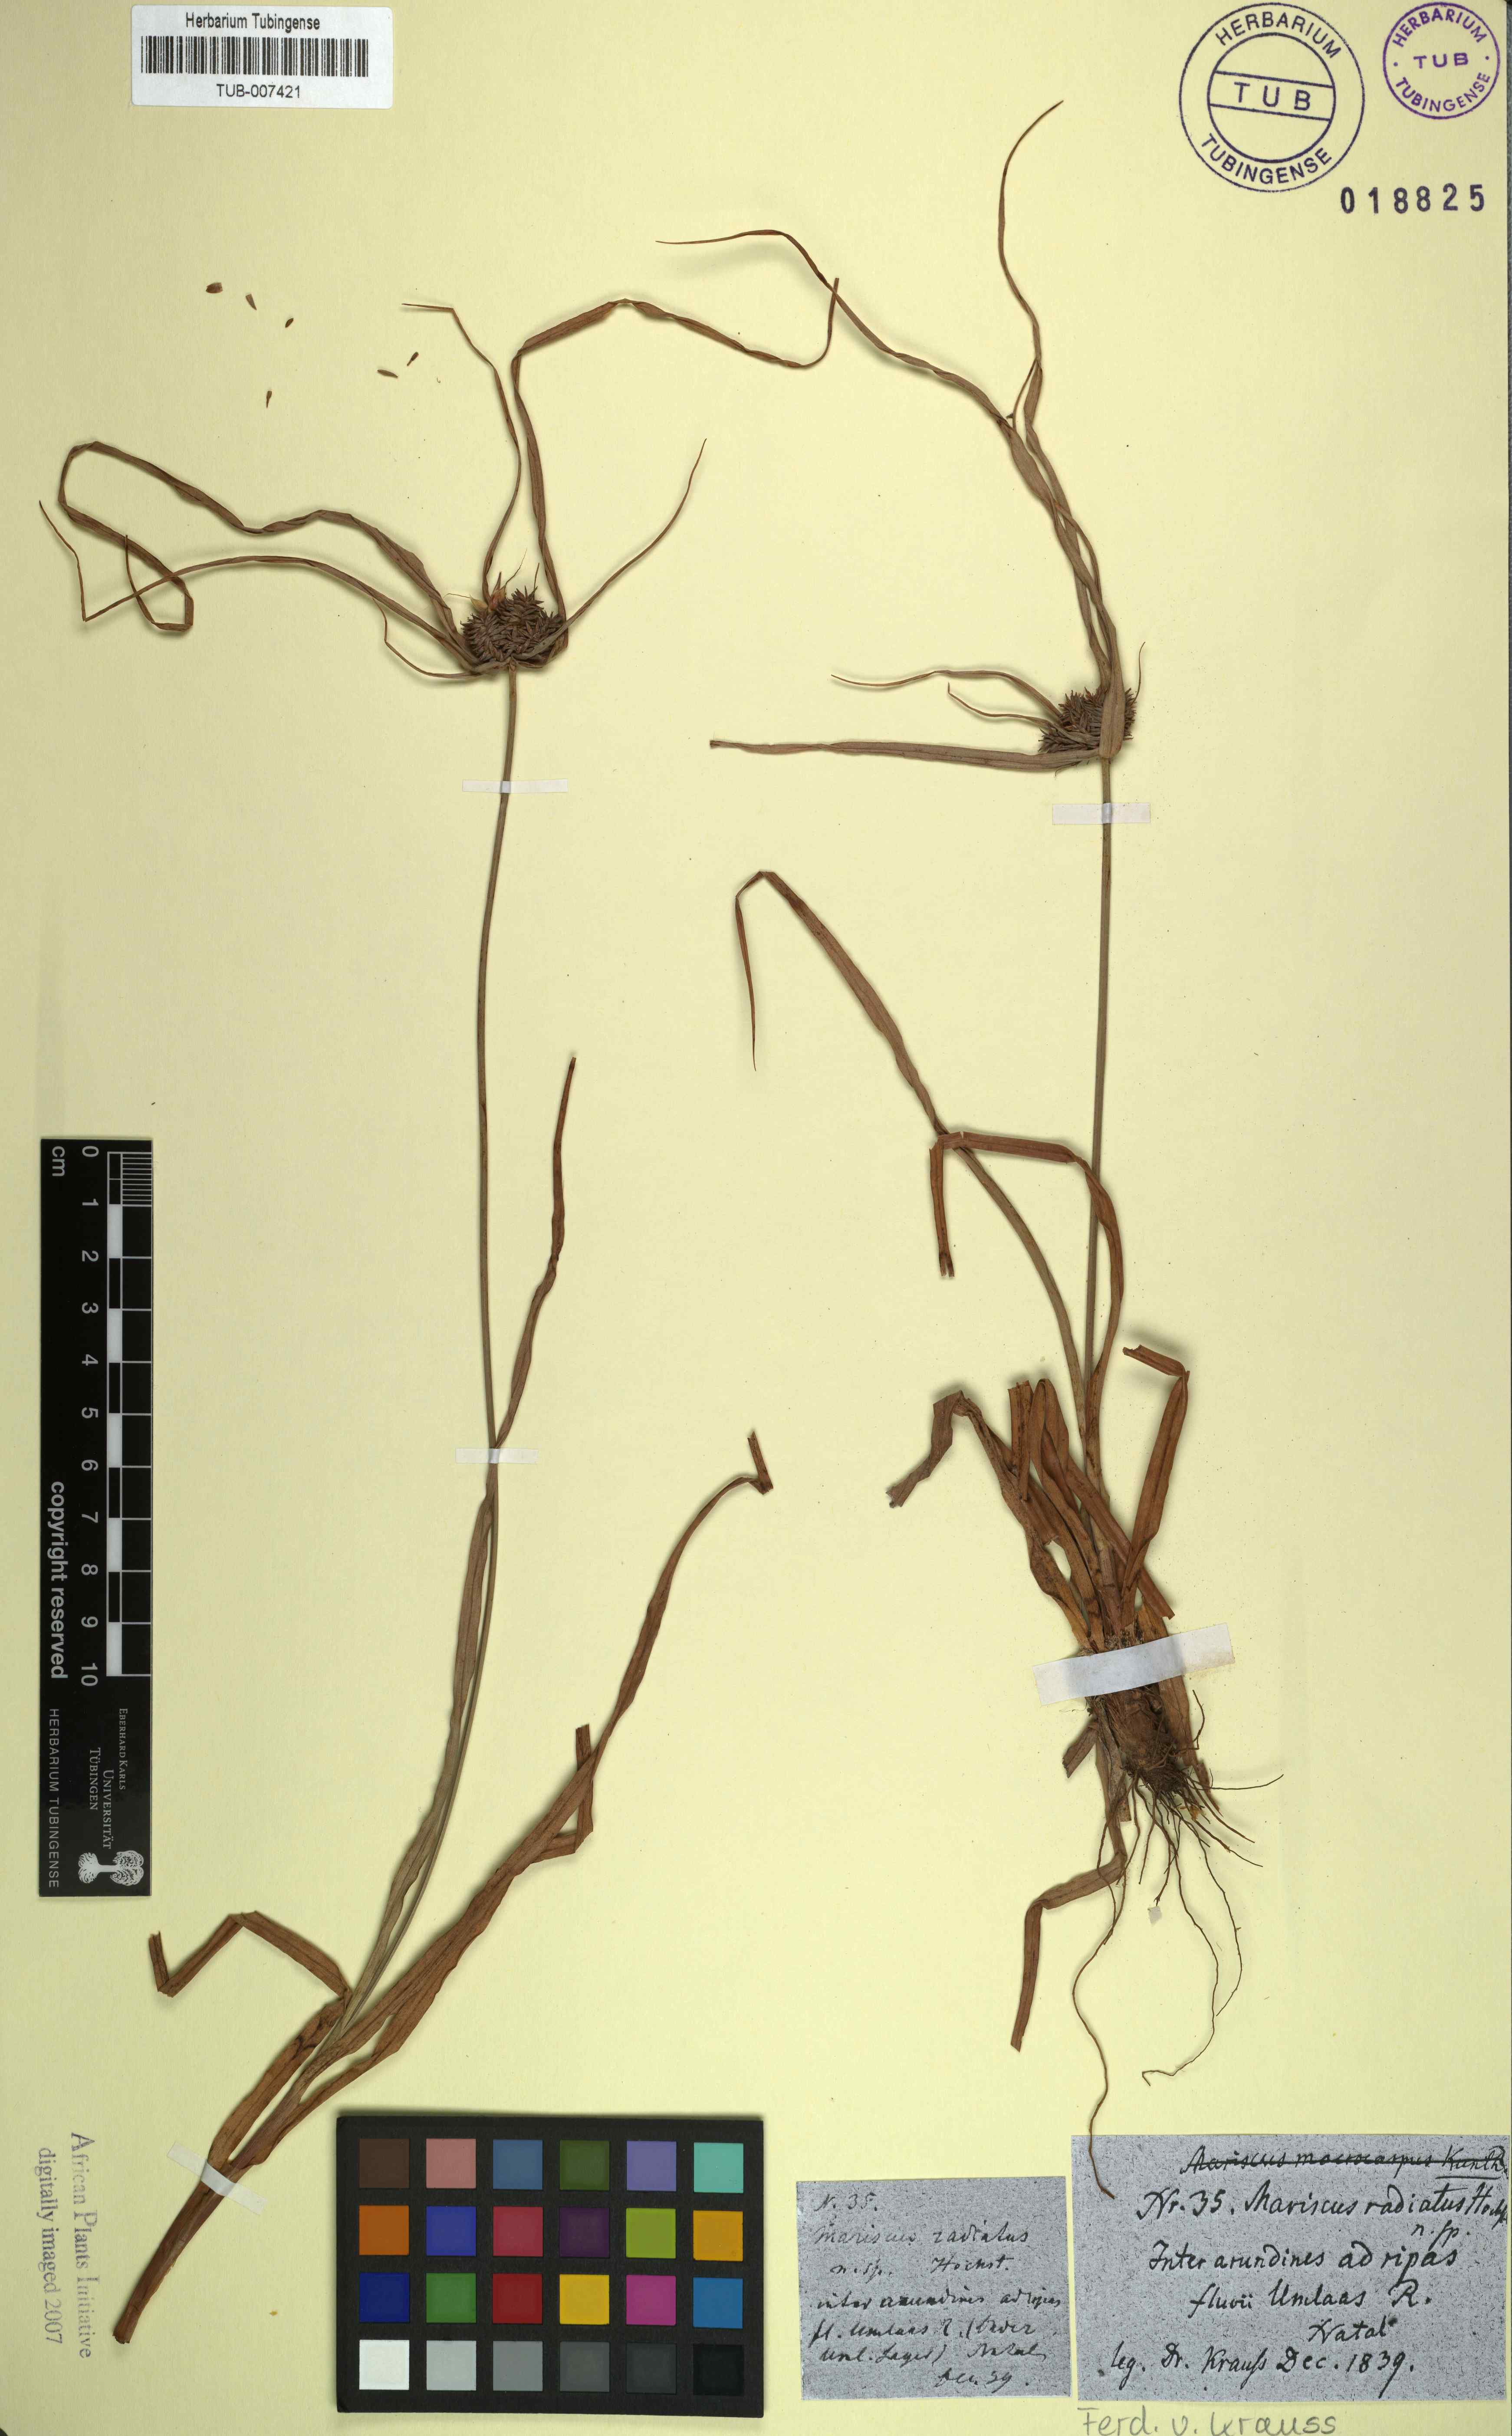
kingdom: Plantae
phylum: Tracheophyta
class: Liliopsida
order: Poales
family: Cyperaceae
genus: Cyperus
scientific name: Cyperus macrocarpus
